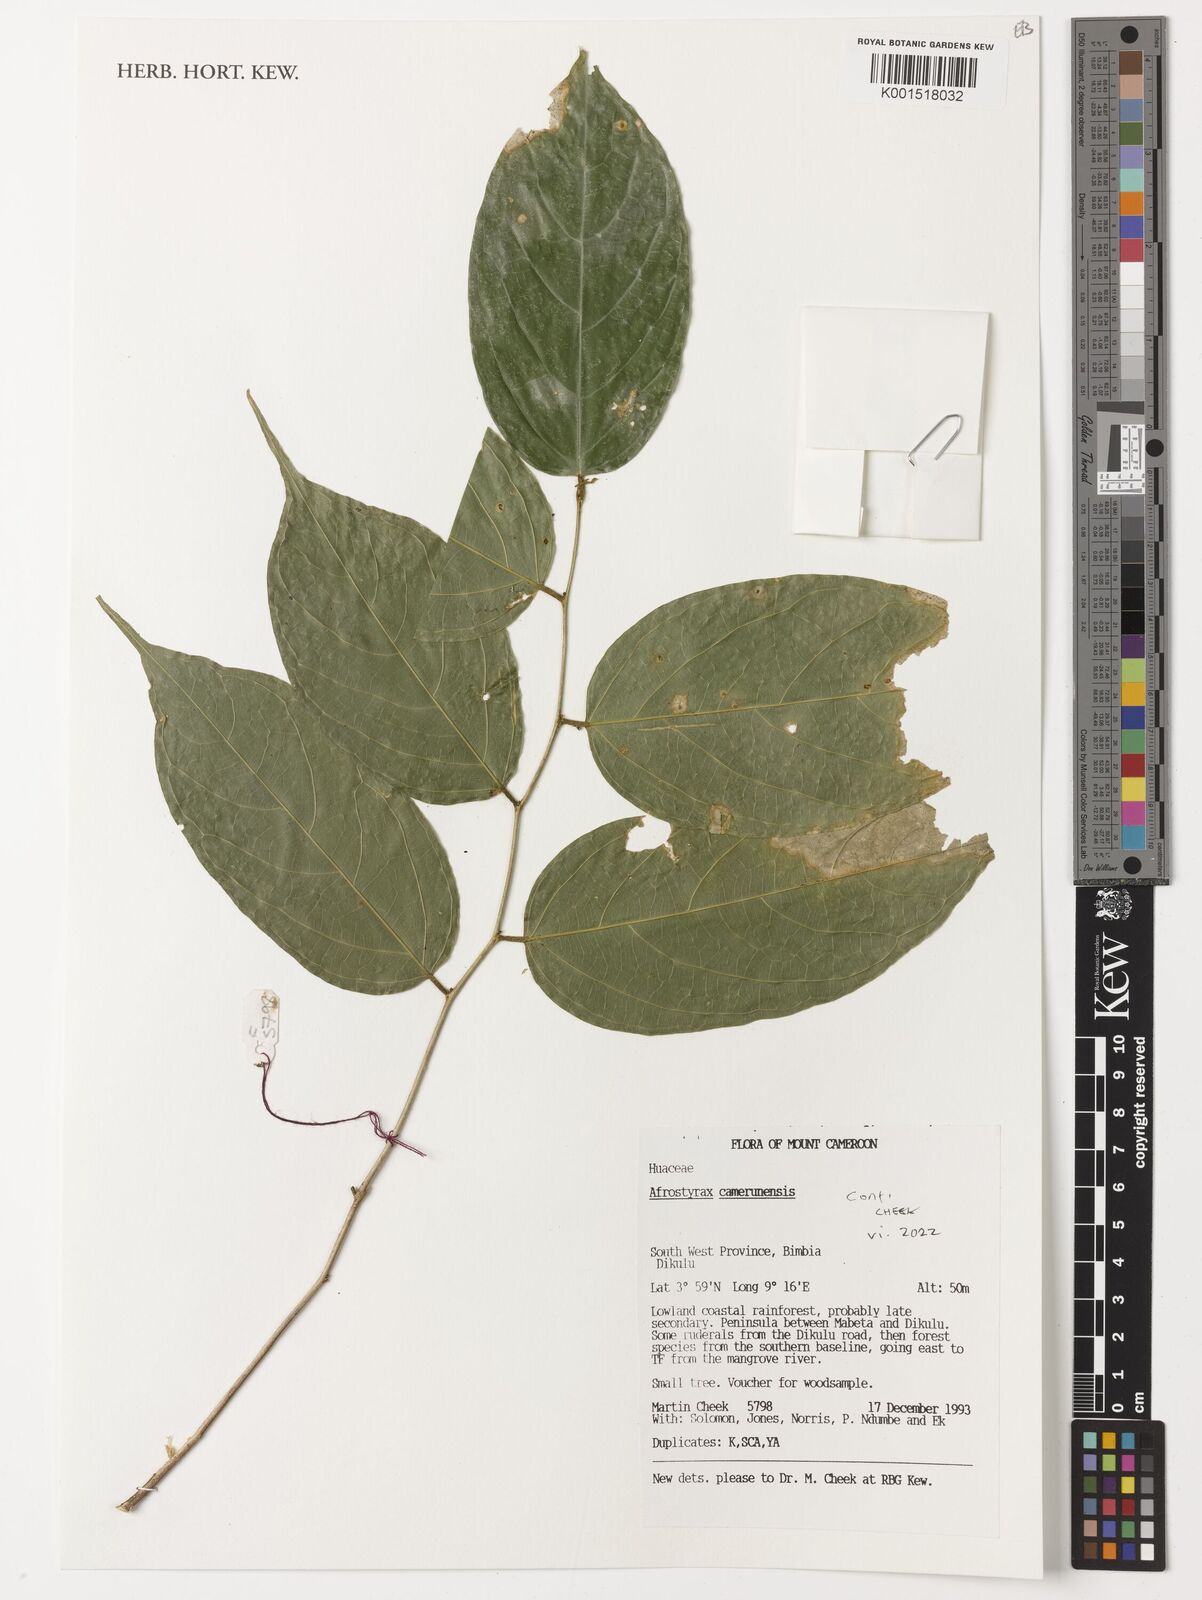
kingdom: Plantae
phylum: Tracheophyta
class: Magnoliopsida
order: Oxalidales
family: Huaceae
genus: Afrostyrax
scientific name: Afrostyrax kamerunensis
